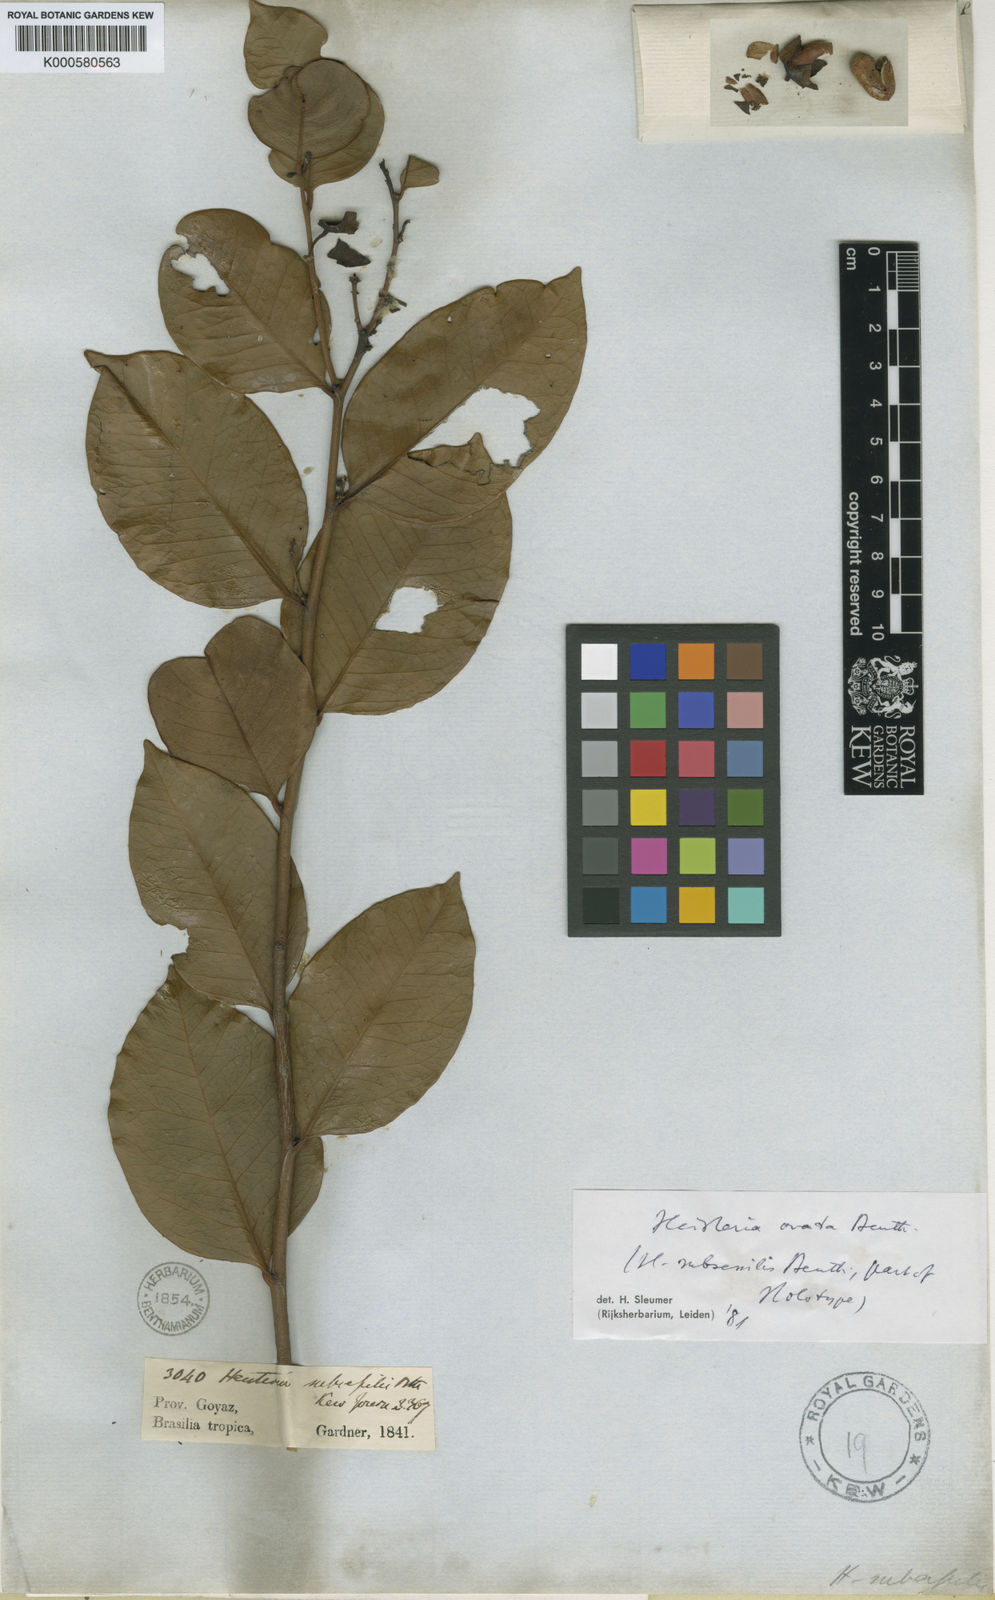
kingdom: Plantae
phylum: Tracheophyta
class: Magnoliopsida
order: Santalales
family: Erythropalaceae
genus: Heisteria
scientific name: Heisteria ovata
